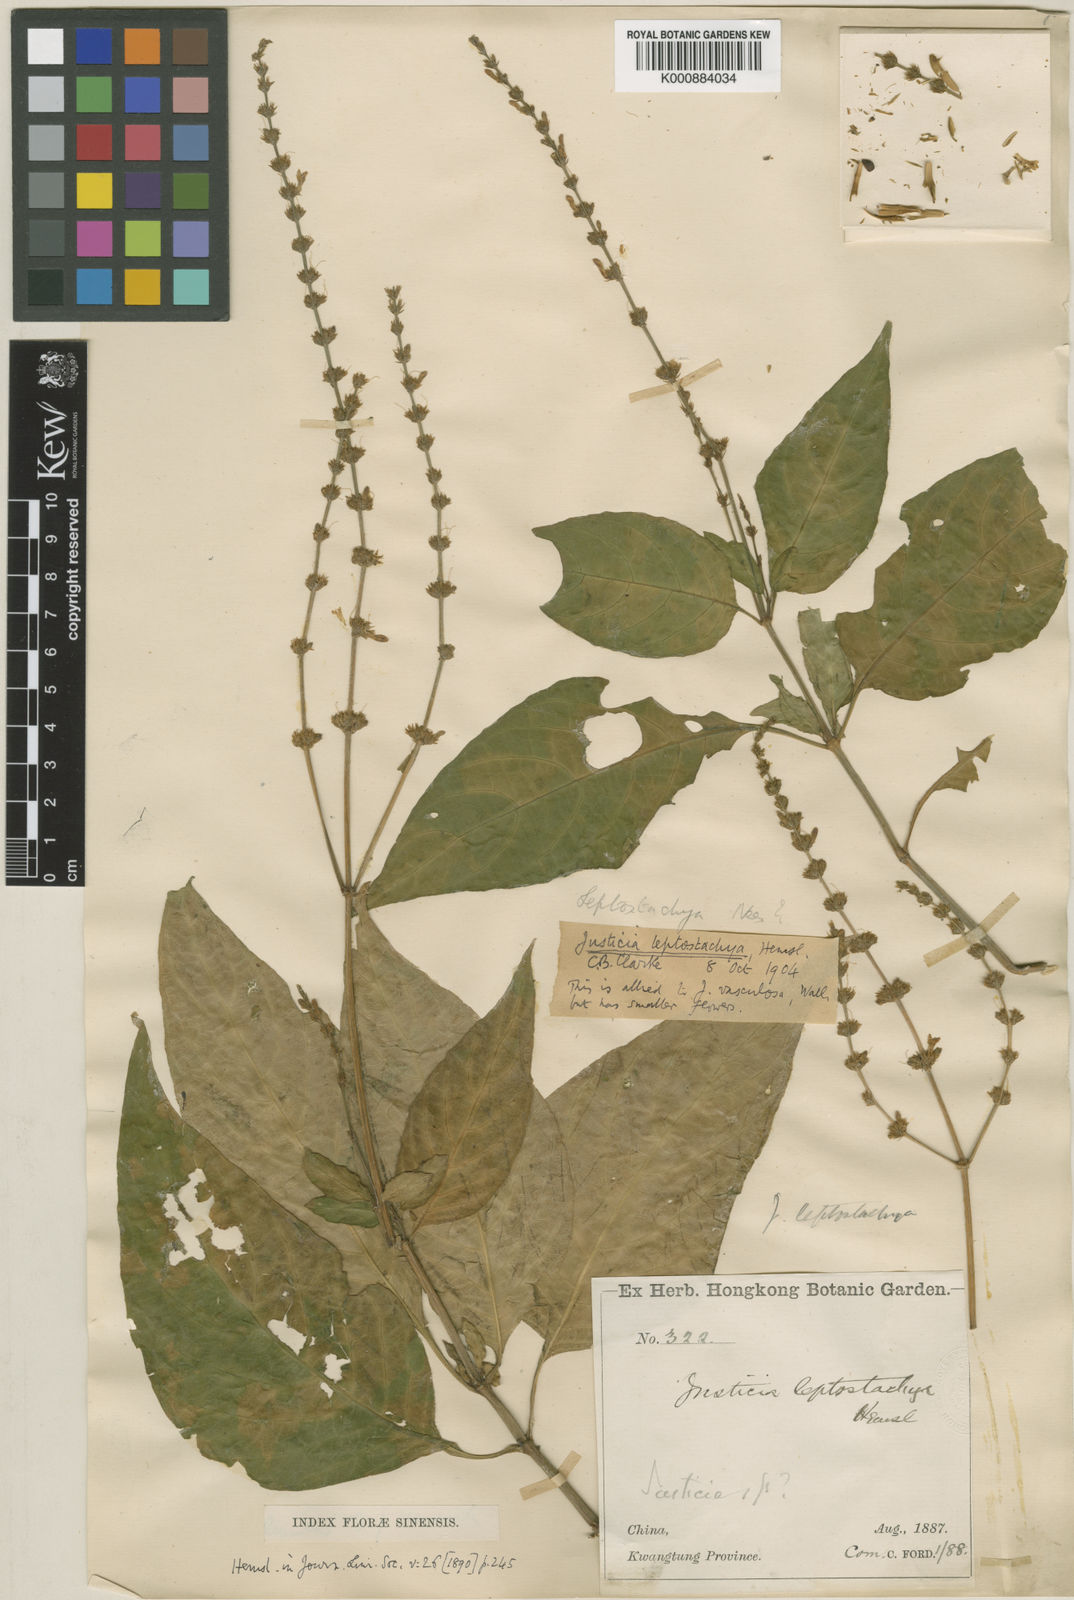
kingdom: Plantae
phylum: Tracheophyta
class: Magnoliopsida
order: Lamiales
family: Acanthaceae
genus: Justicia
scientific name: Justicia leptostachya
